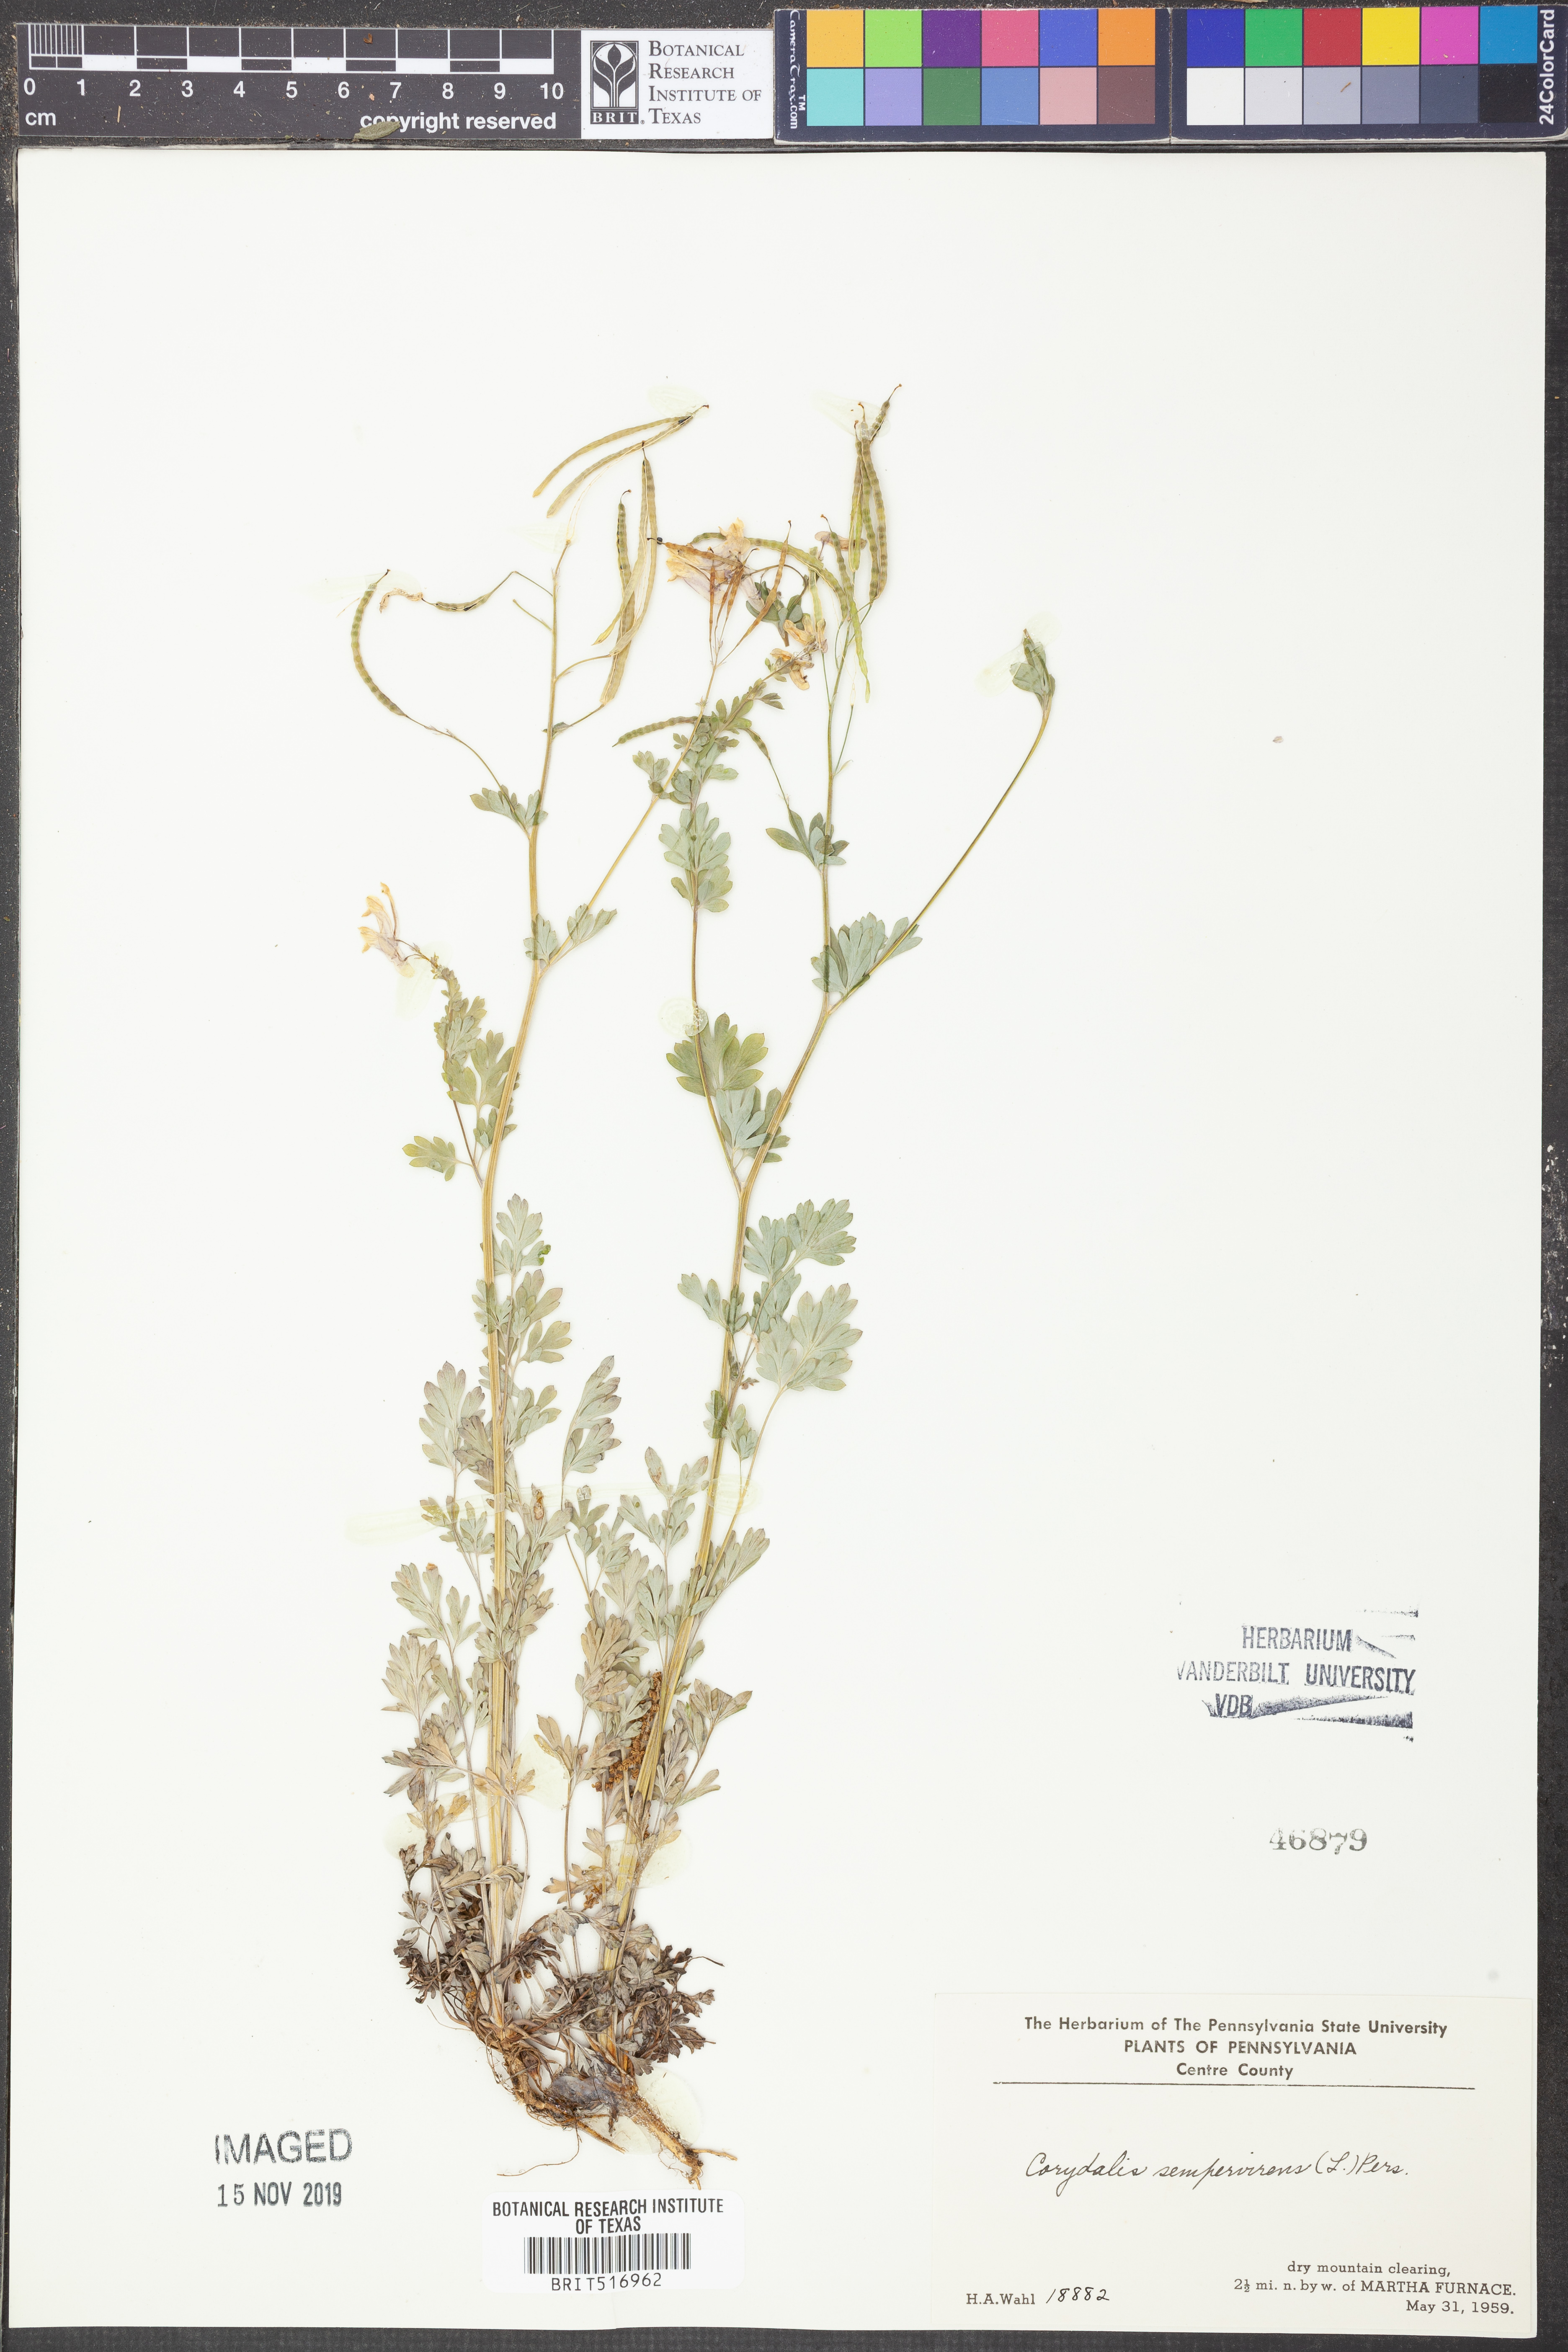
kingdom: Plantae
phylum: Tracheophyta
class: Magnoliopsida
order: Ranunculales
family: Papaveraceae
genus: Capnoides
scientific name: Capnoides sempervirens
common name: Rock harlequin
